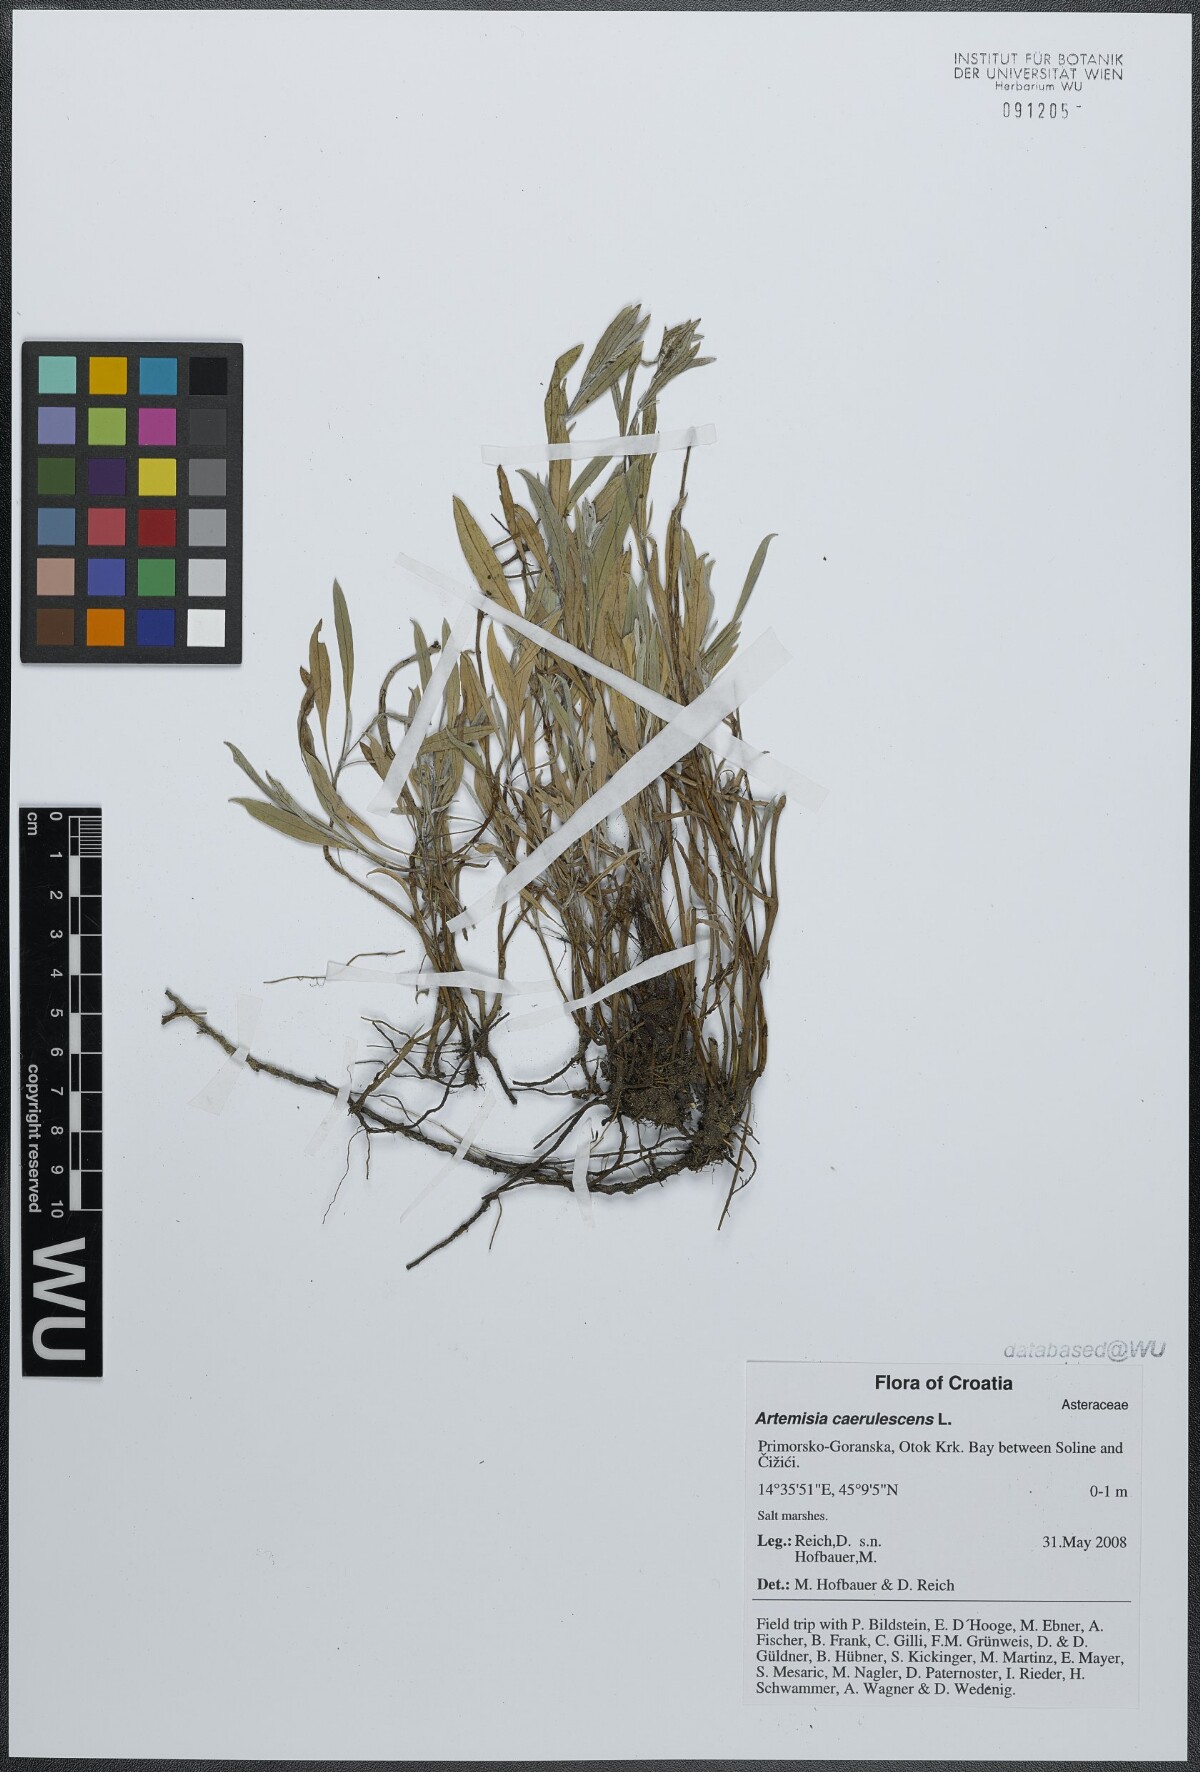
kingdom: Plantae
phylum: Tracheophyta
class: Magnoliopsida
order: Asterales
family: Asteraceae
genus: Artemisia
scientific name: Artemisia caerulescens
